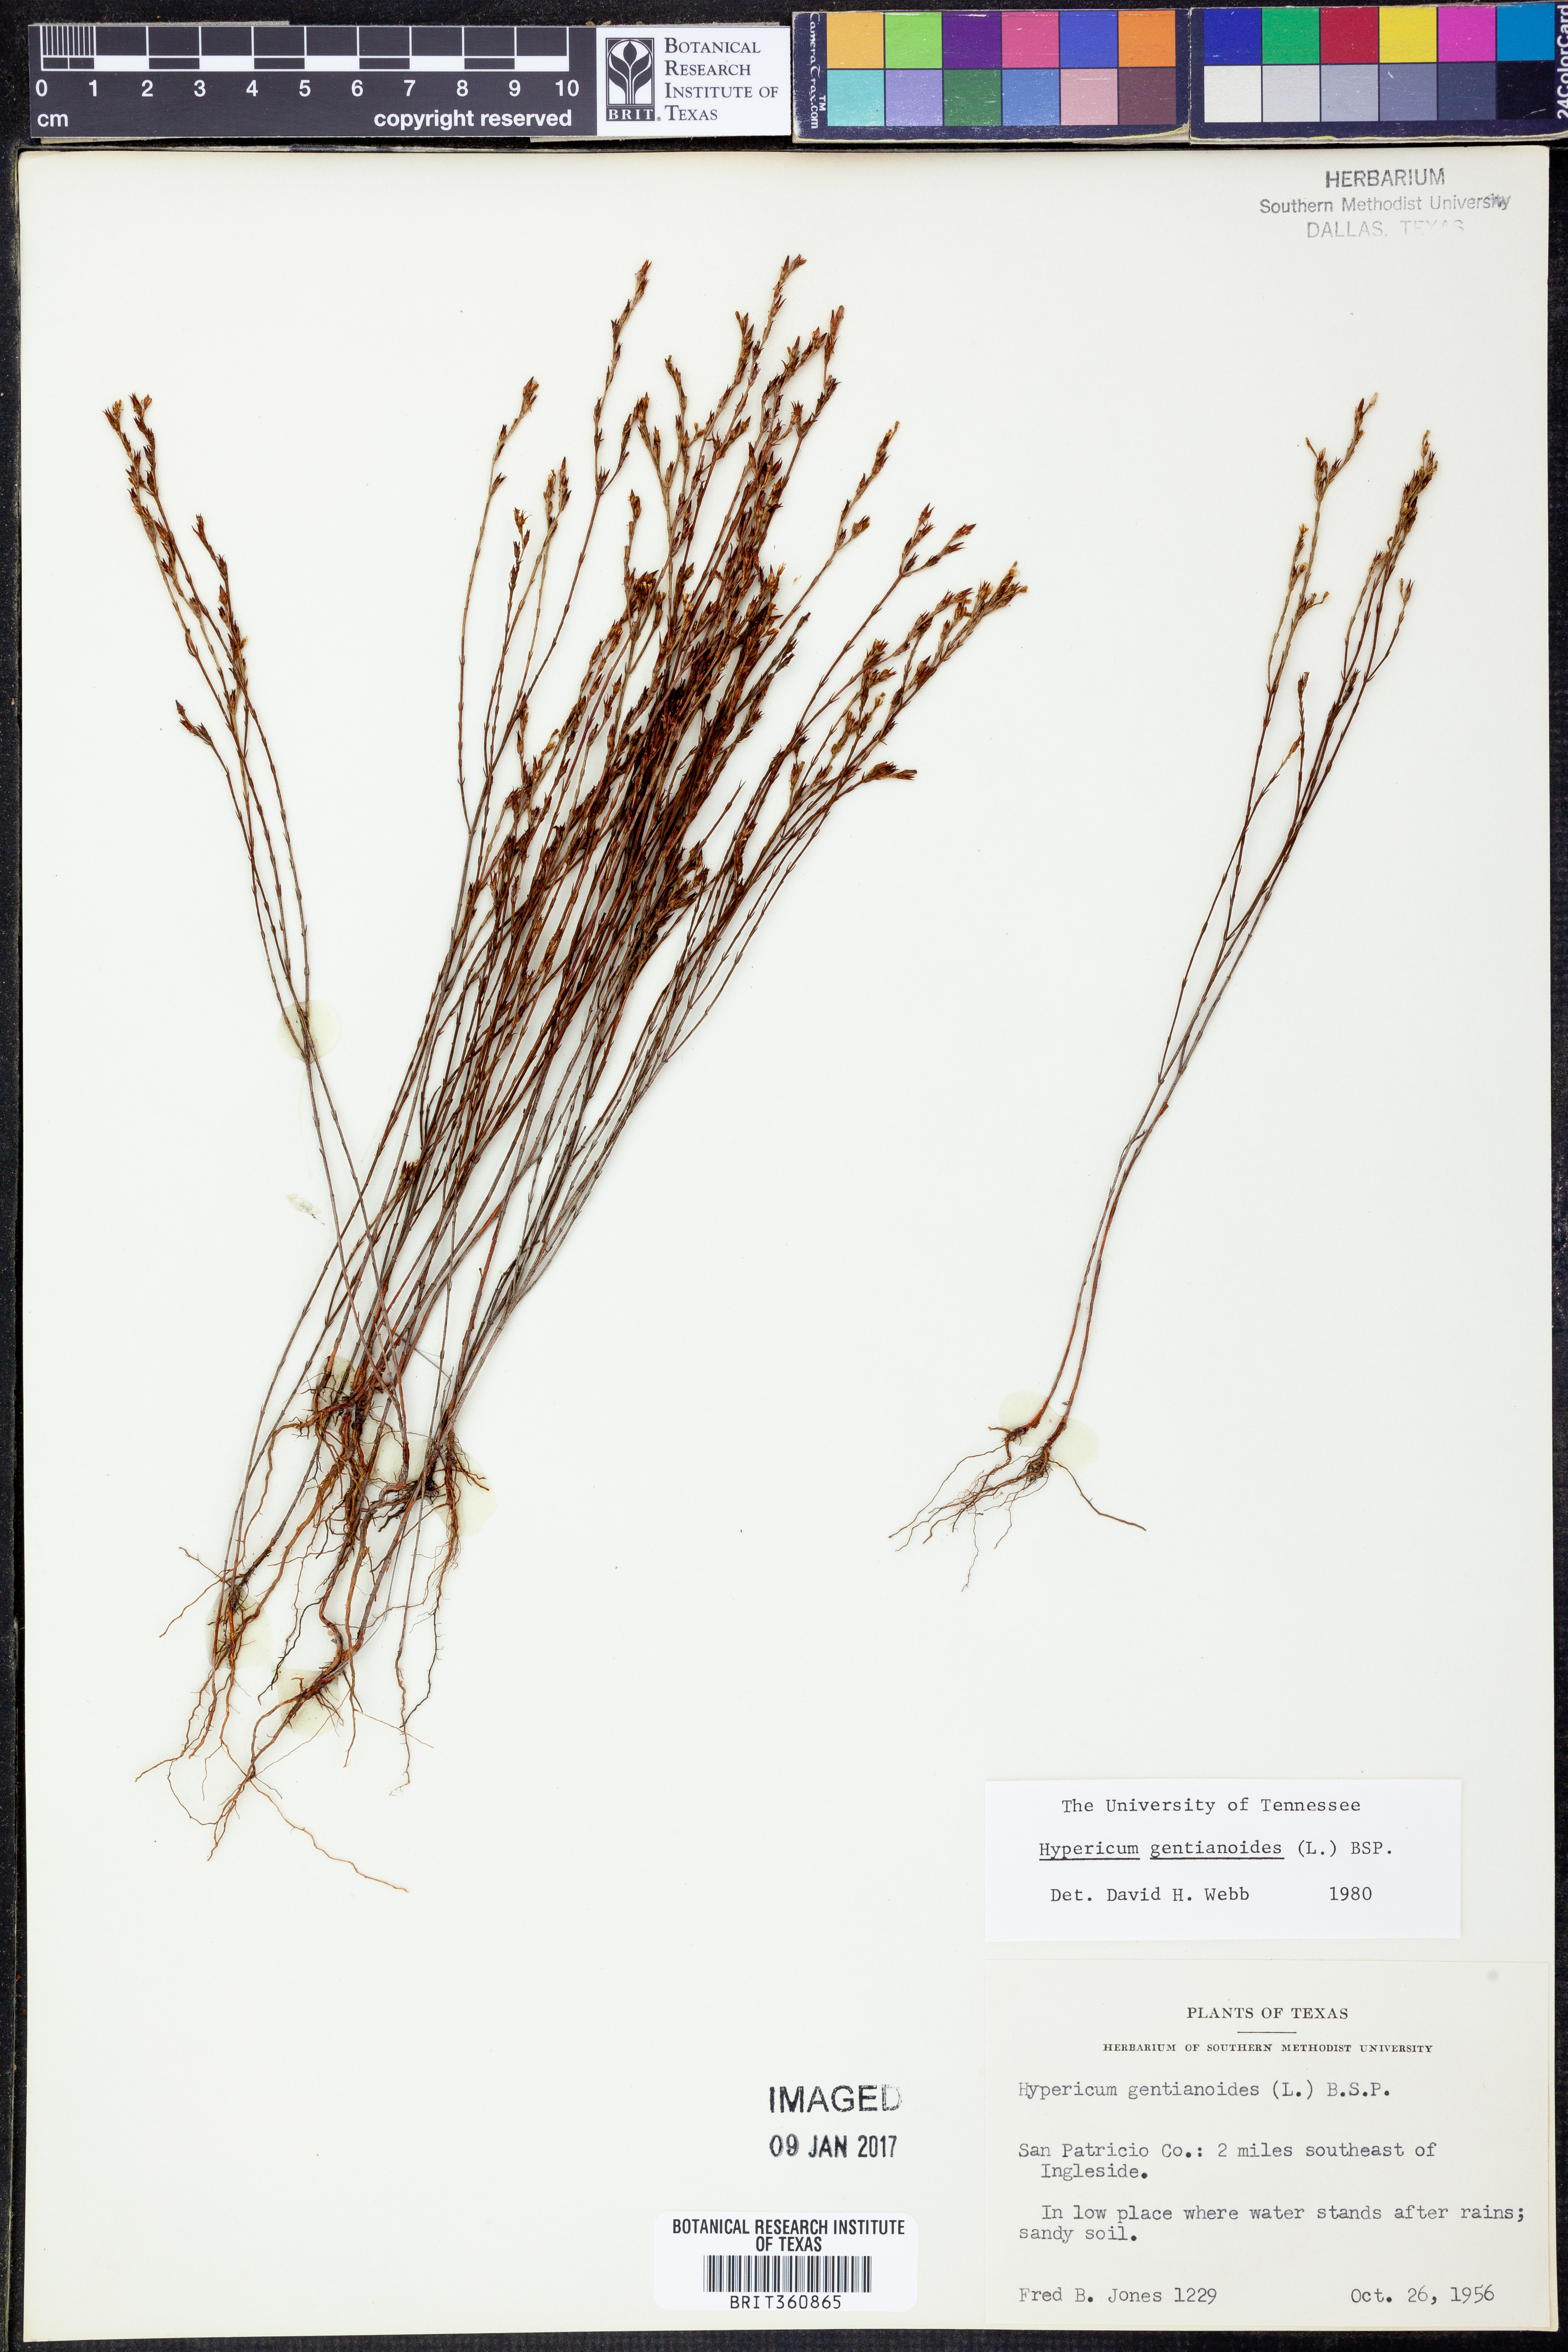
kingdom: Plantae
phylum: Tracheophyta
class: Magnoliopsida
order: Malpighiales
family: Hypericaceae
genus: Hypericum
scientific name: Hypericum gentianoides
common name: Gentian-leaved st. john's-wort
